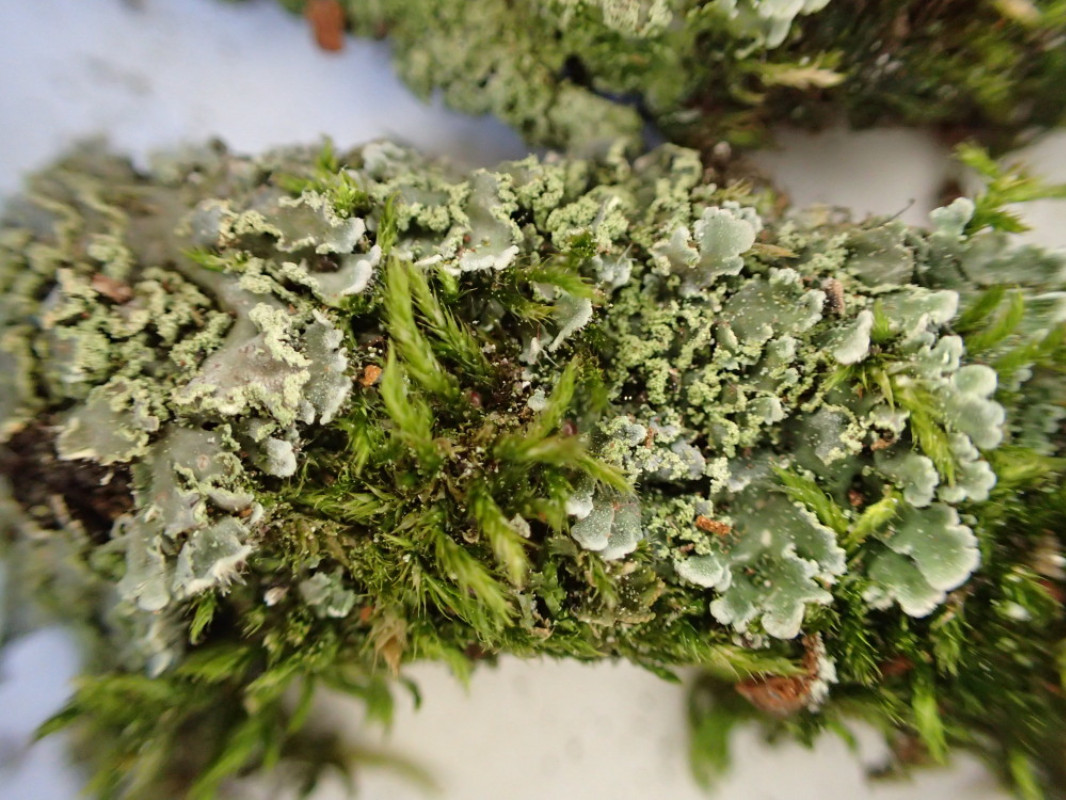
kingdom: Fungi
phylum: Ascomycota
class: Lecanoromycetes
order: Caliciales
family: Physciaceae
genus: Physconia
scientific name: Physconia perisidiosa
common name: liden dugrosetlav
